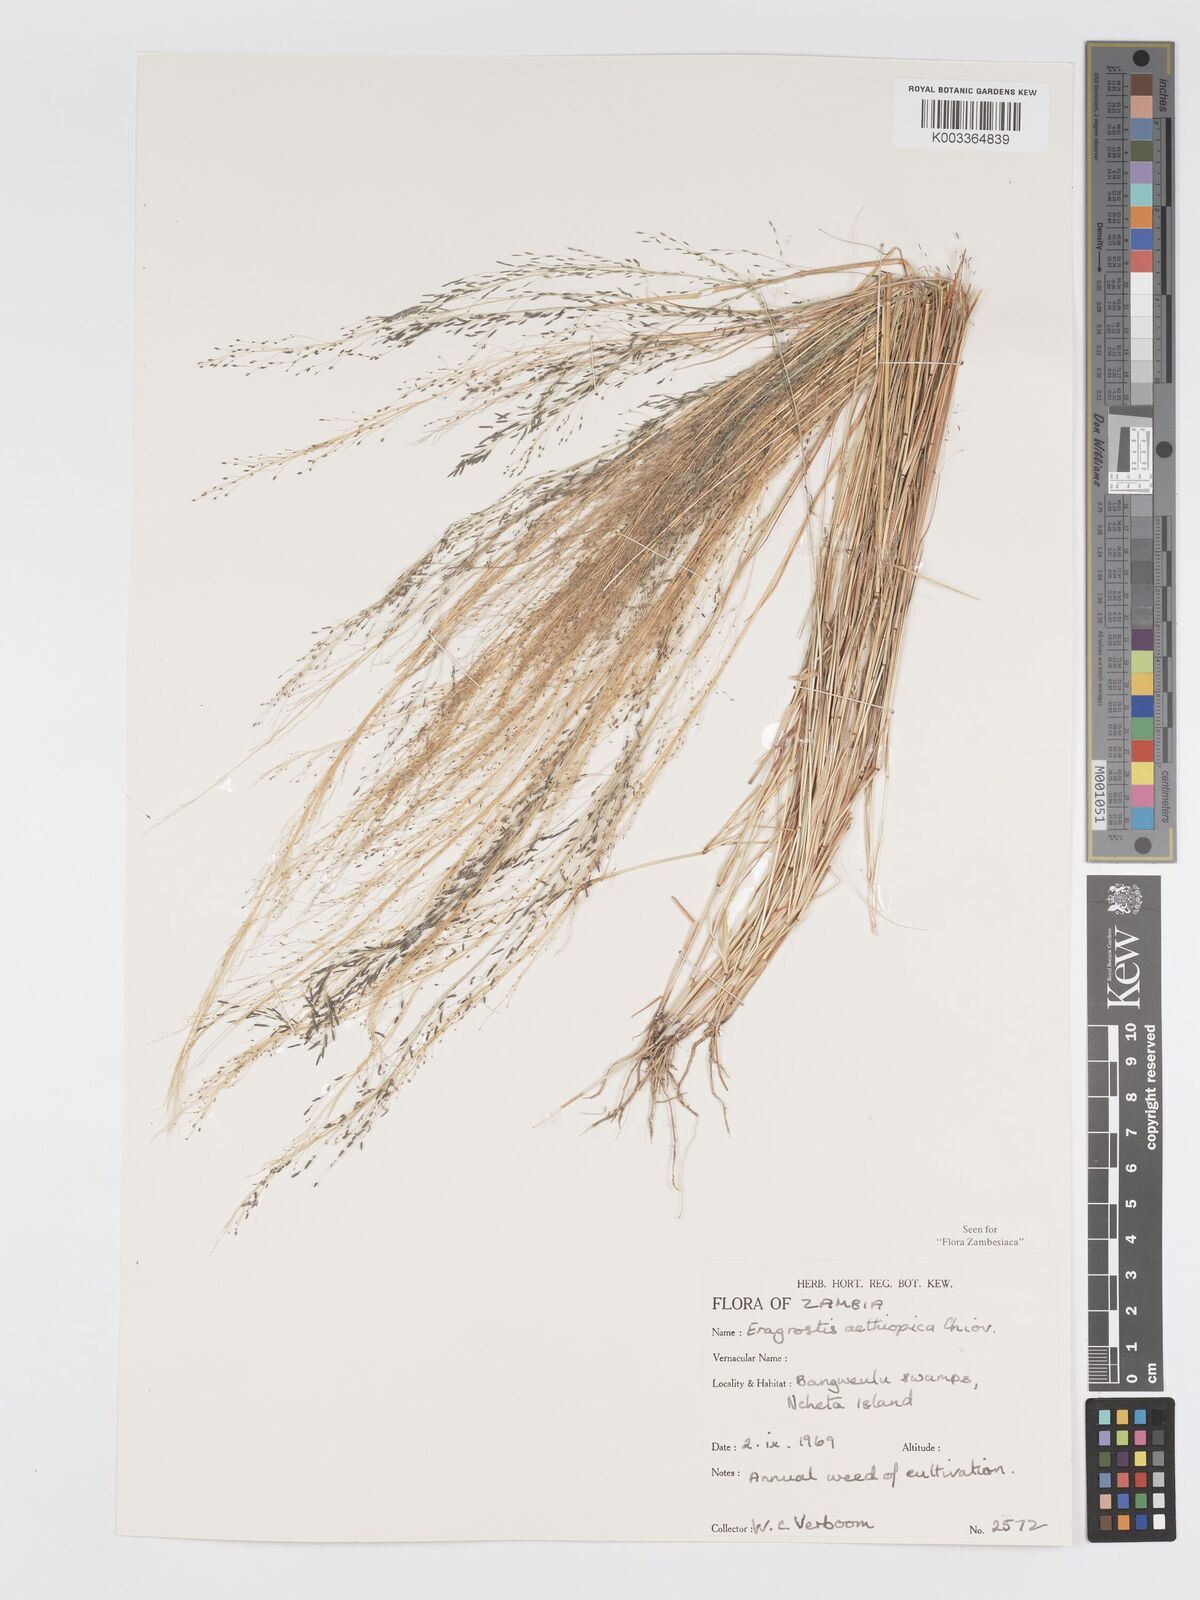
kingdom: Plantae
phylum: Tracheophyta
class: Liliopsida
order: Poales
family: Poaceae
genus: Eragrostis
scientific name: Eragrostis aethiopica
